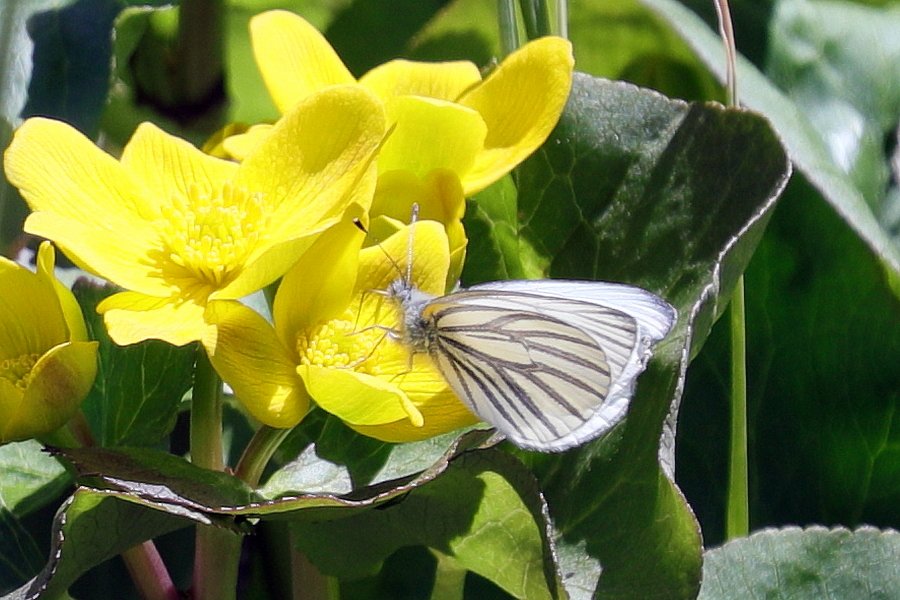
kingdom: Animalia
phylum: Arthropoda
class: Insecta
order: Lepidoptera
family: Pieridae
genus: Pieris
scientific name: Pieris oleracea
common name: Mustard White
